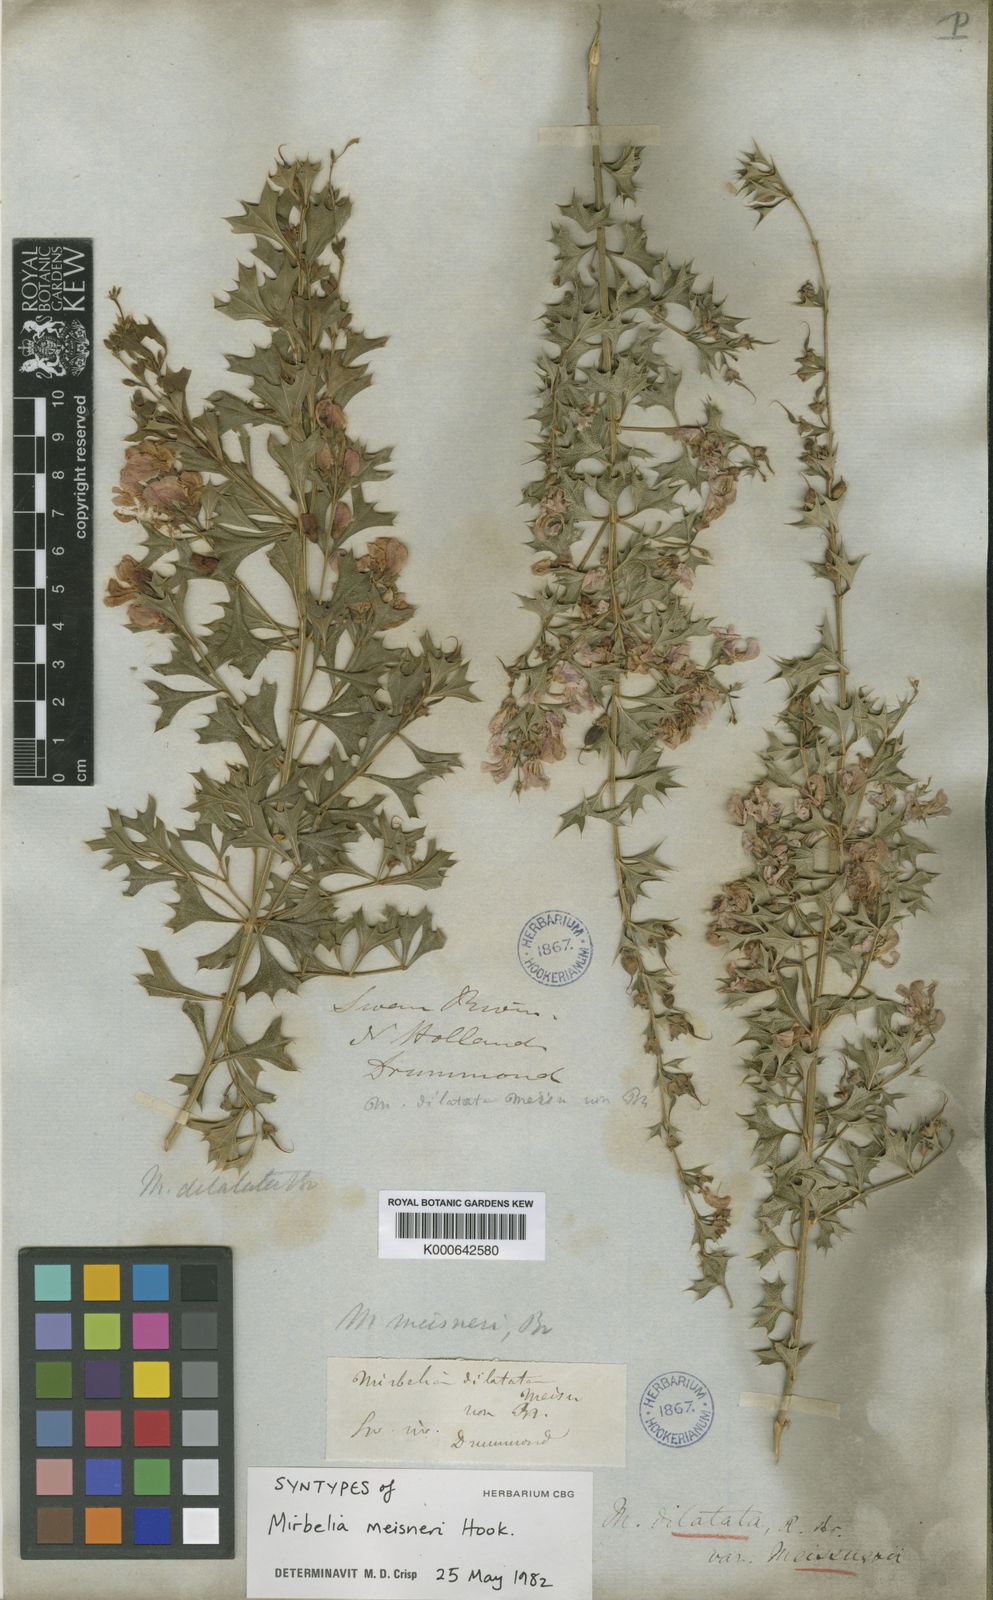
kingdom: Plantae
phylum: Tracheophyta
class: Magnoliopsida
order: Fabales
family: Fabaceae
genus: Mirbelia
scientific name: Mirbelia dilatata
